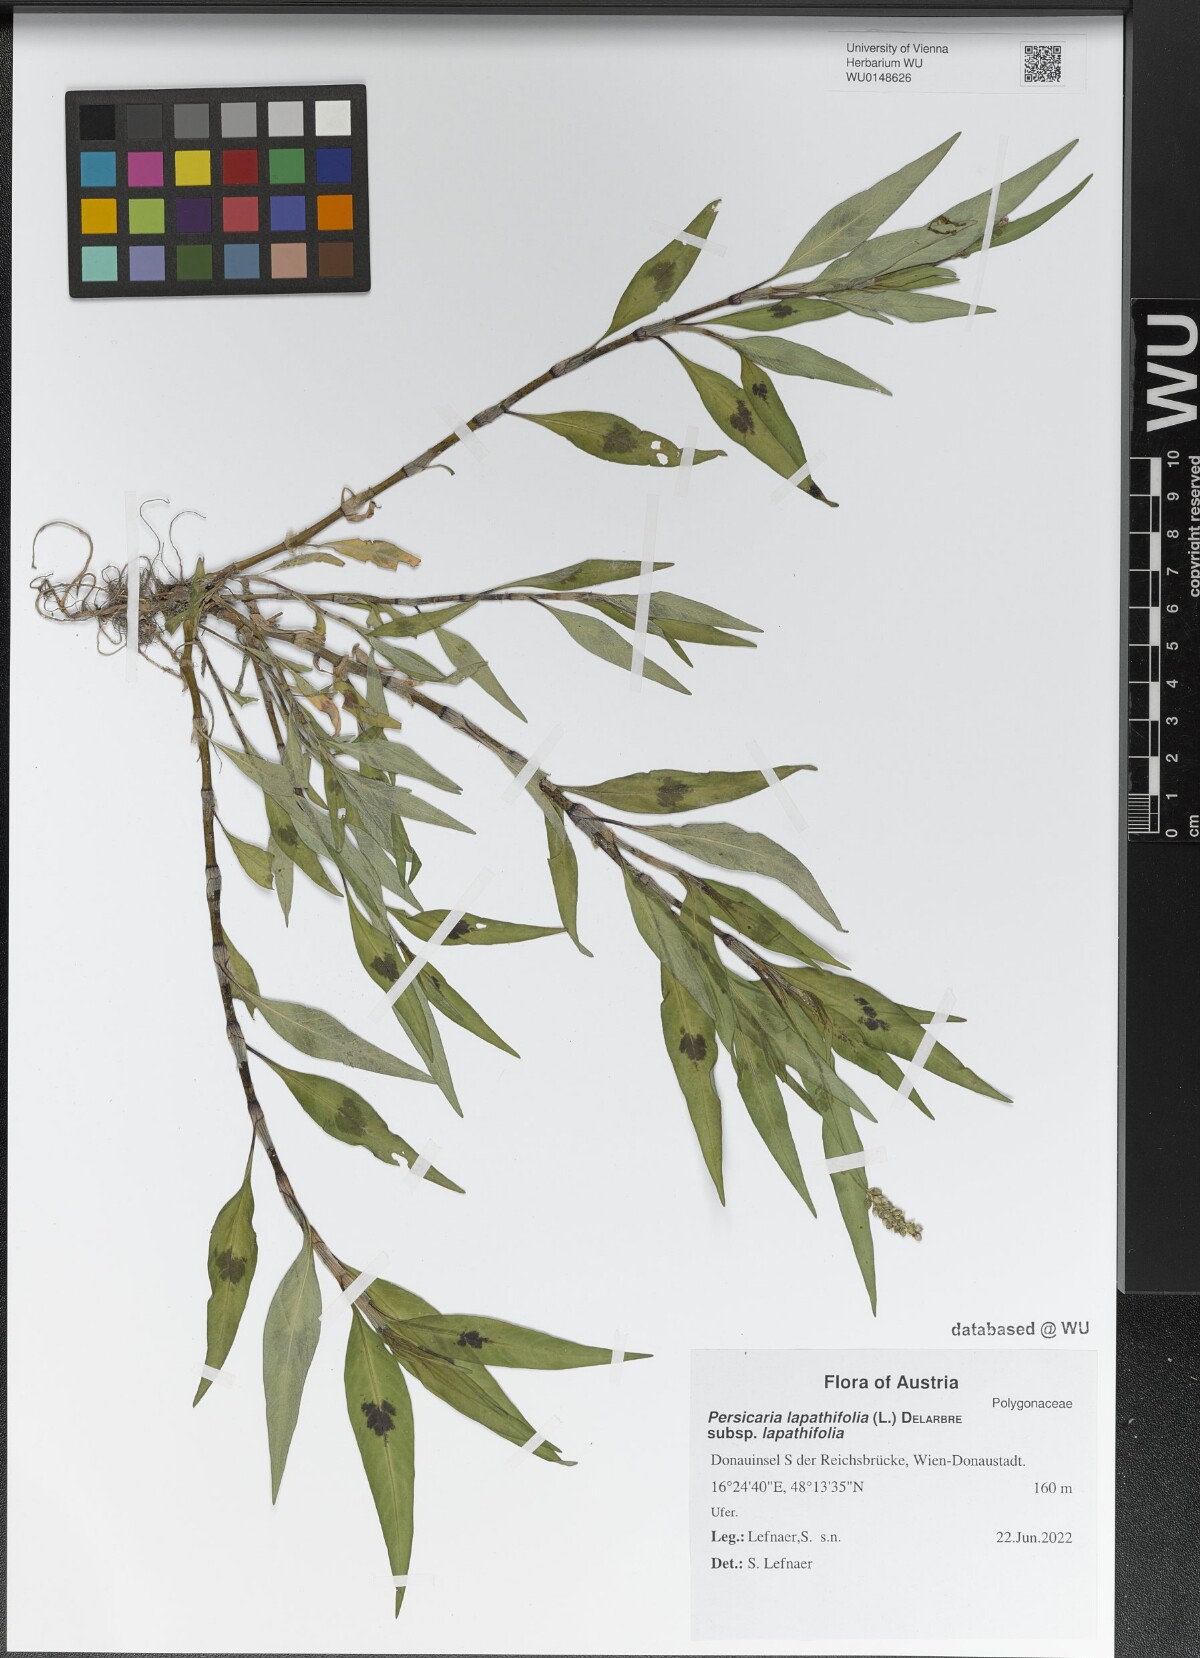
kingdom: Plantae
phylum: Tracheophyta
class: Magnoliopsida
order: Caryophyllales
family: Polygonaceae
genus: Persicaria
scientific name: Persicaria lapathifolia
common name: Curlytop knotweed
